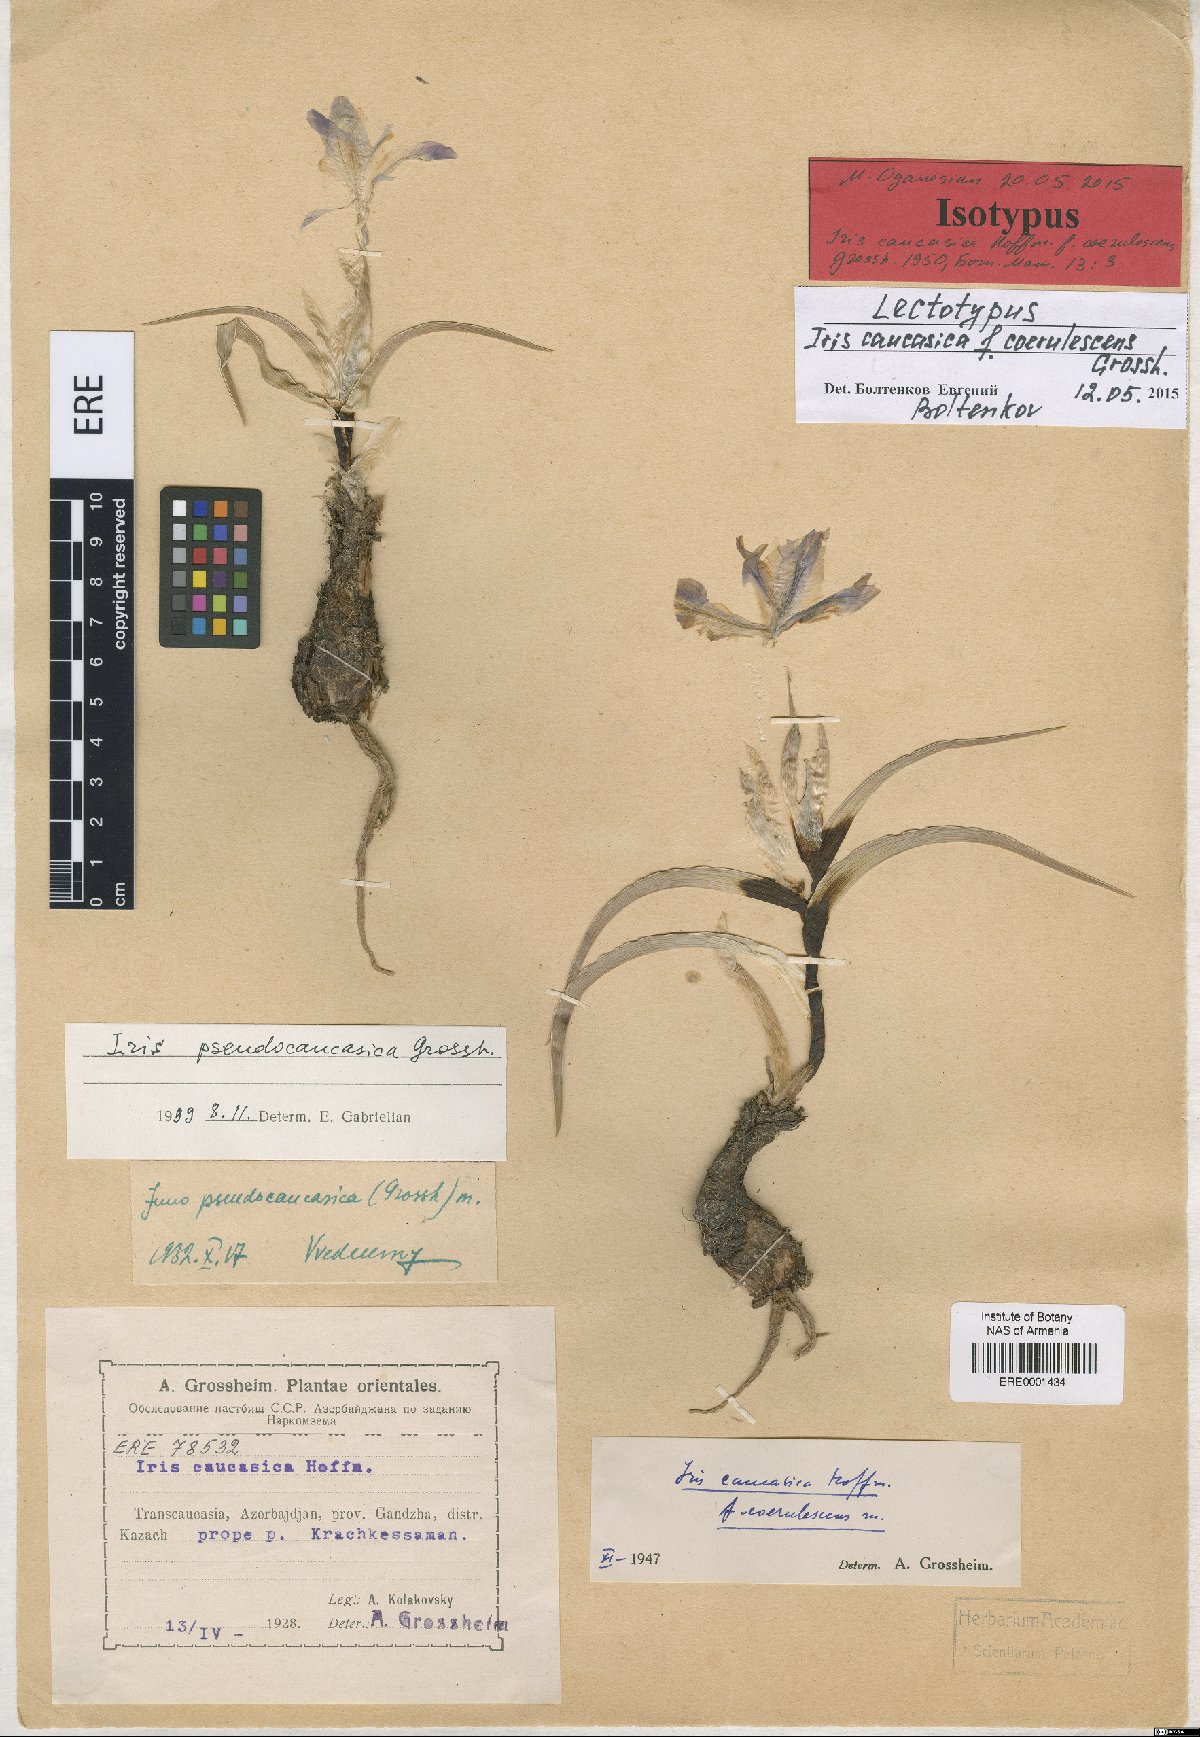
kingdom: Plantae
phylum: Tracheophyta
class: Liliopsida
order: Asparagales
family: Iridaceae
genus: Iris
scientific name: Iris pseudocaucasica
